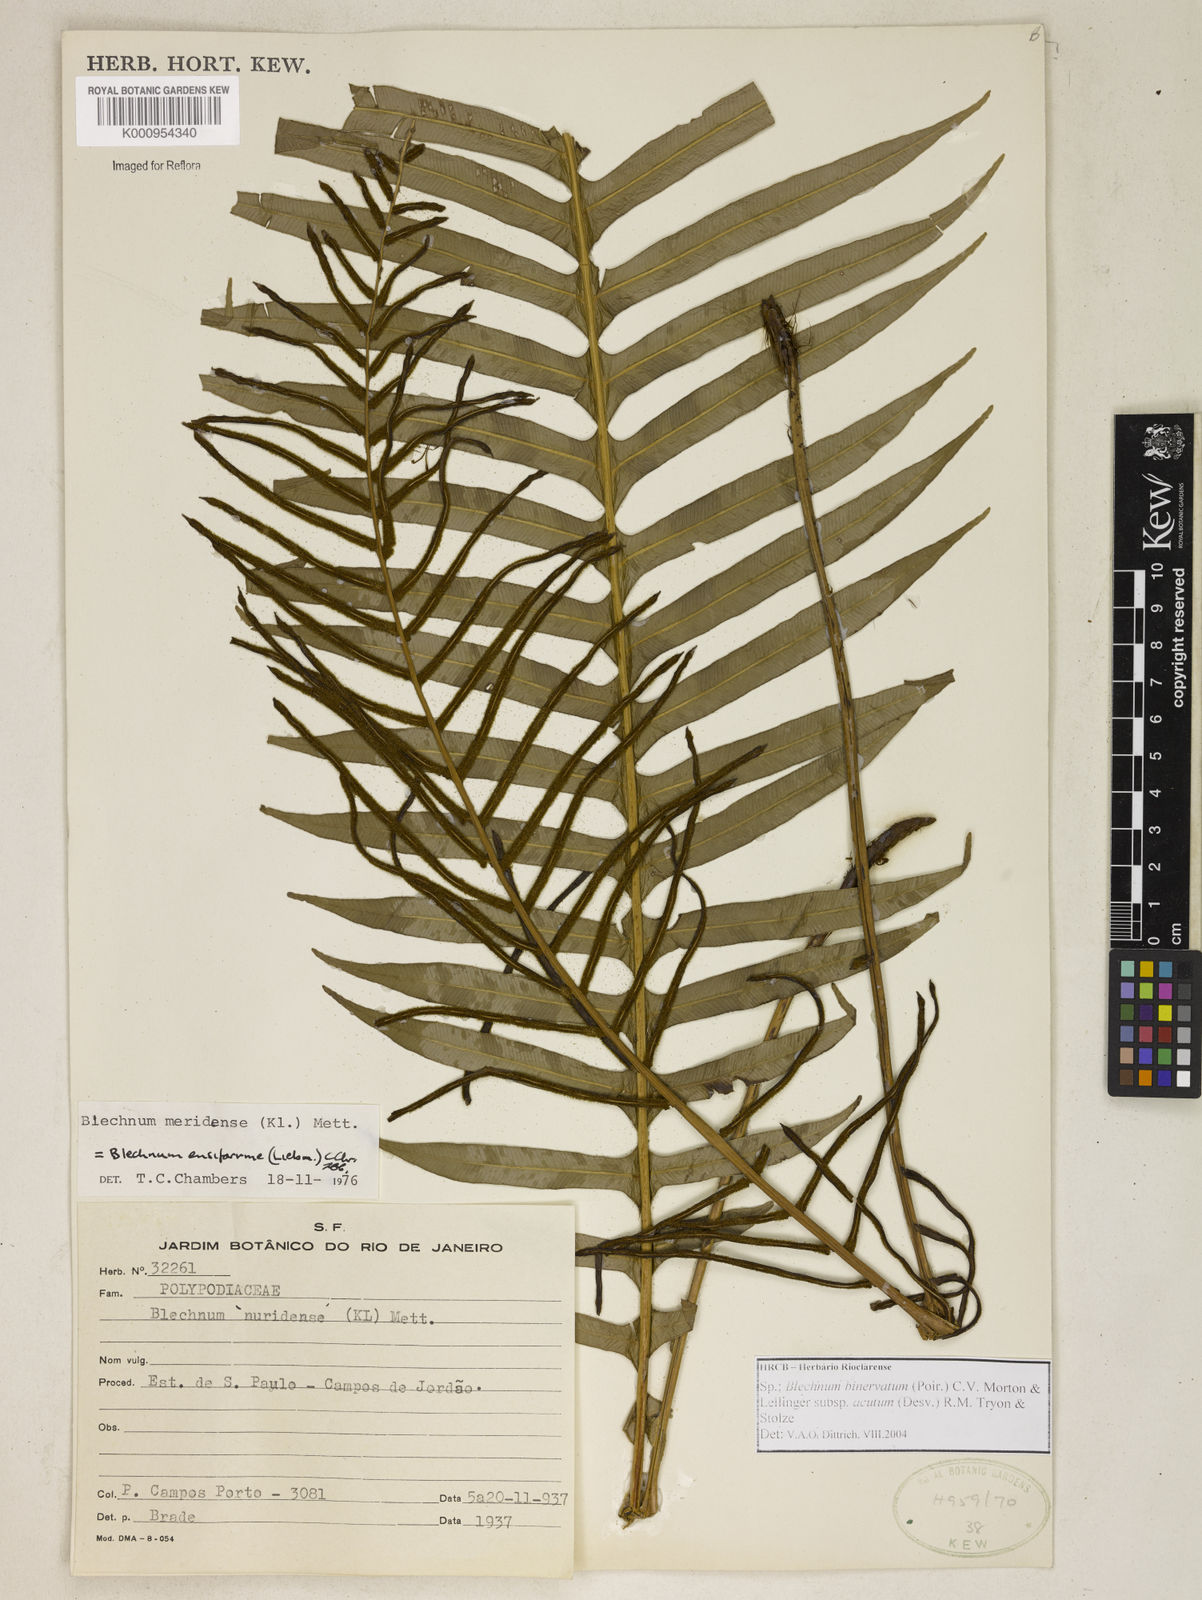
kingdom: Plantae
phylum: Tracheophyta
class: Polypodiopsida
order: Polypodiales
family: Blechnaceae
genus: Lomaridium
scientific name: Lomaridium ensiforme
